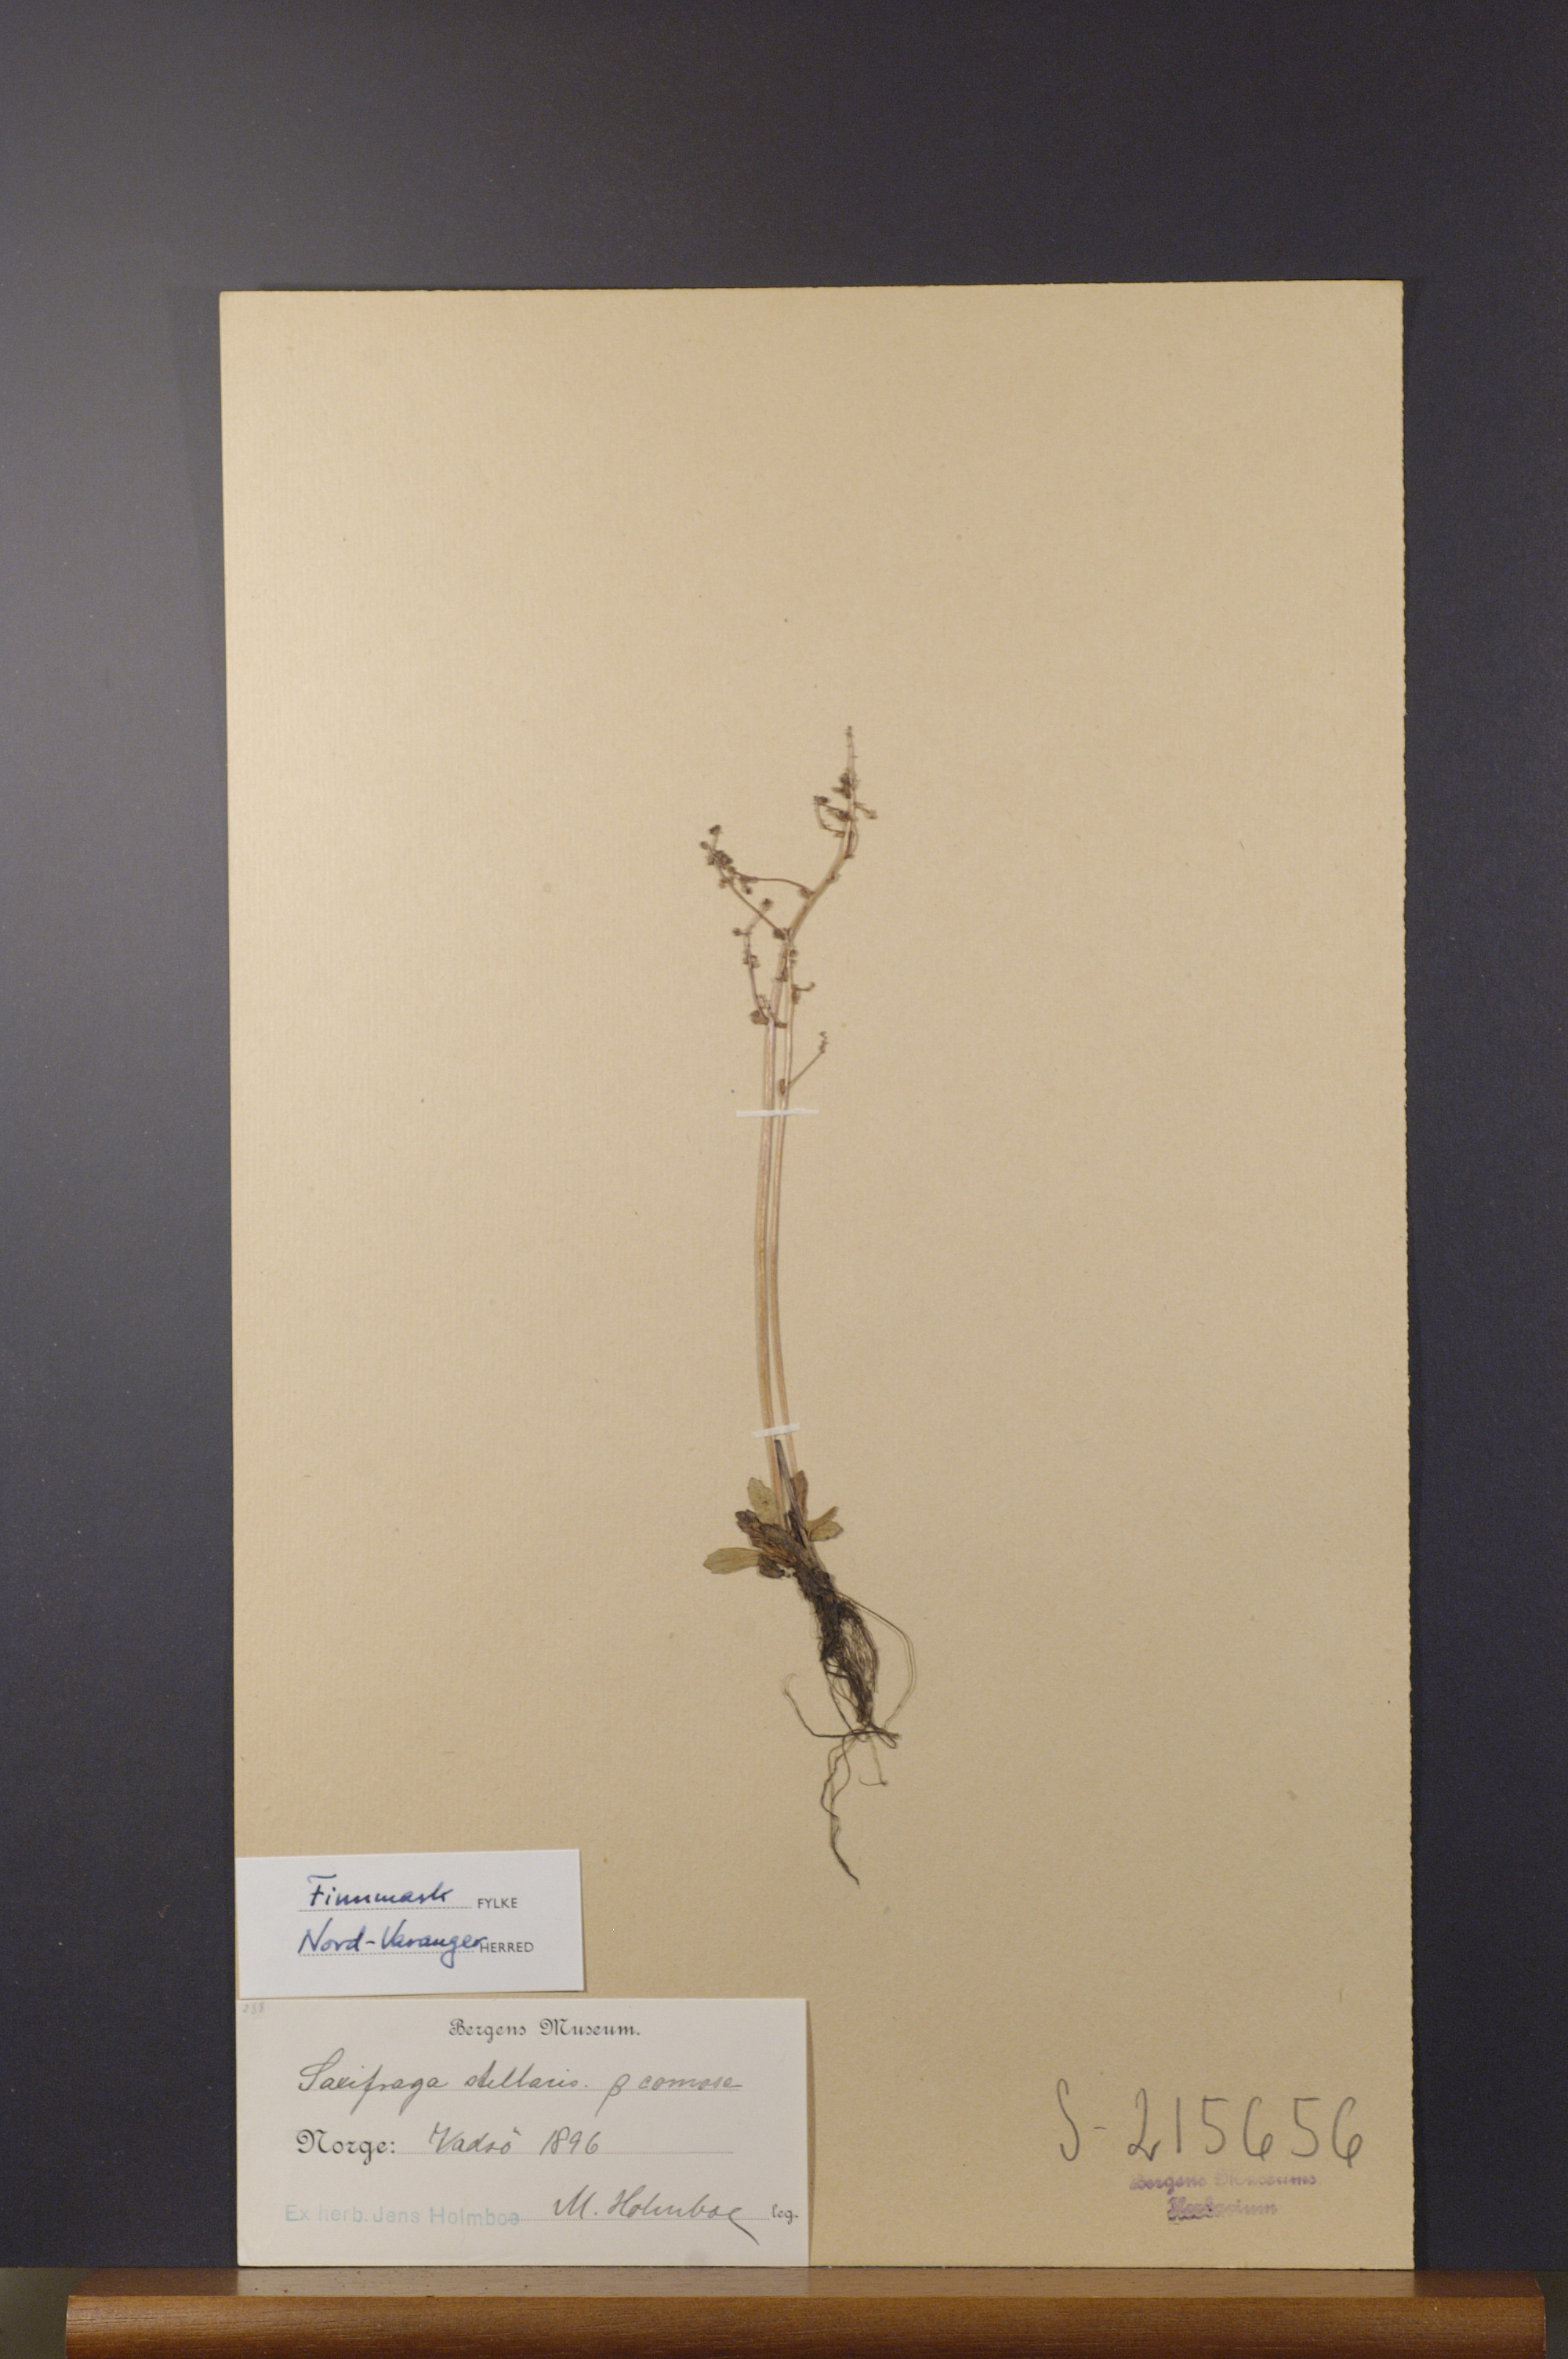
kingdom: Plantae
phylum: Tracheophyta
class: Magnoliopsida
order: Saxifragales
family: Saxifragaceae
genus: Micranthes
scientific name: Micranthes foliolosa
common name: Leafystem saxifrage
